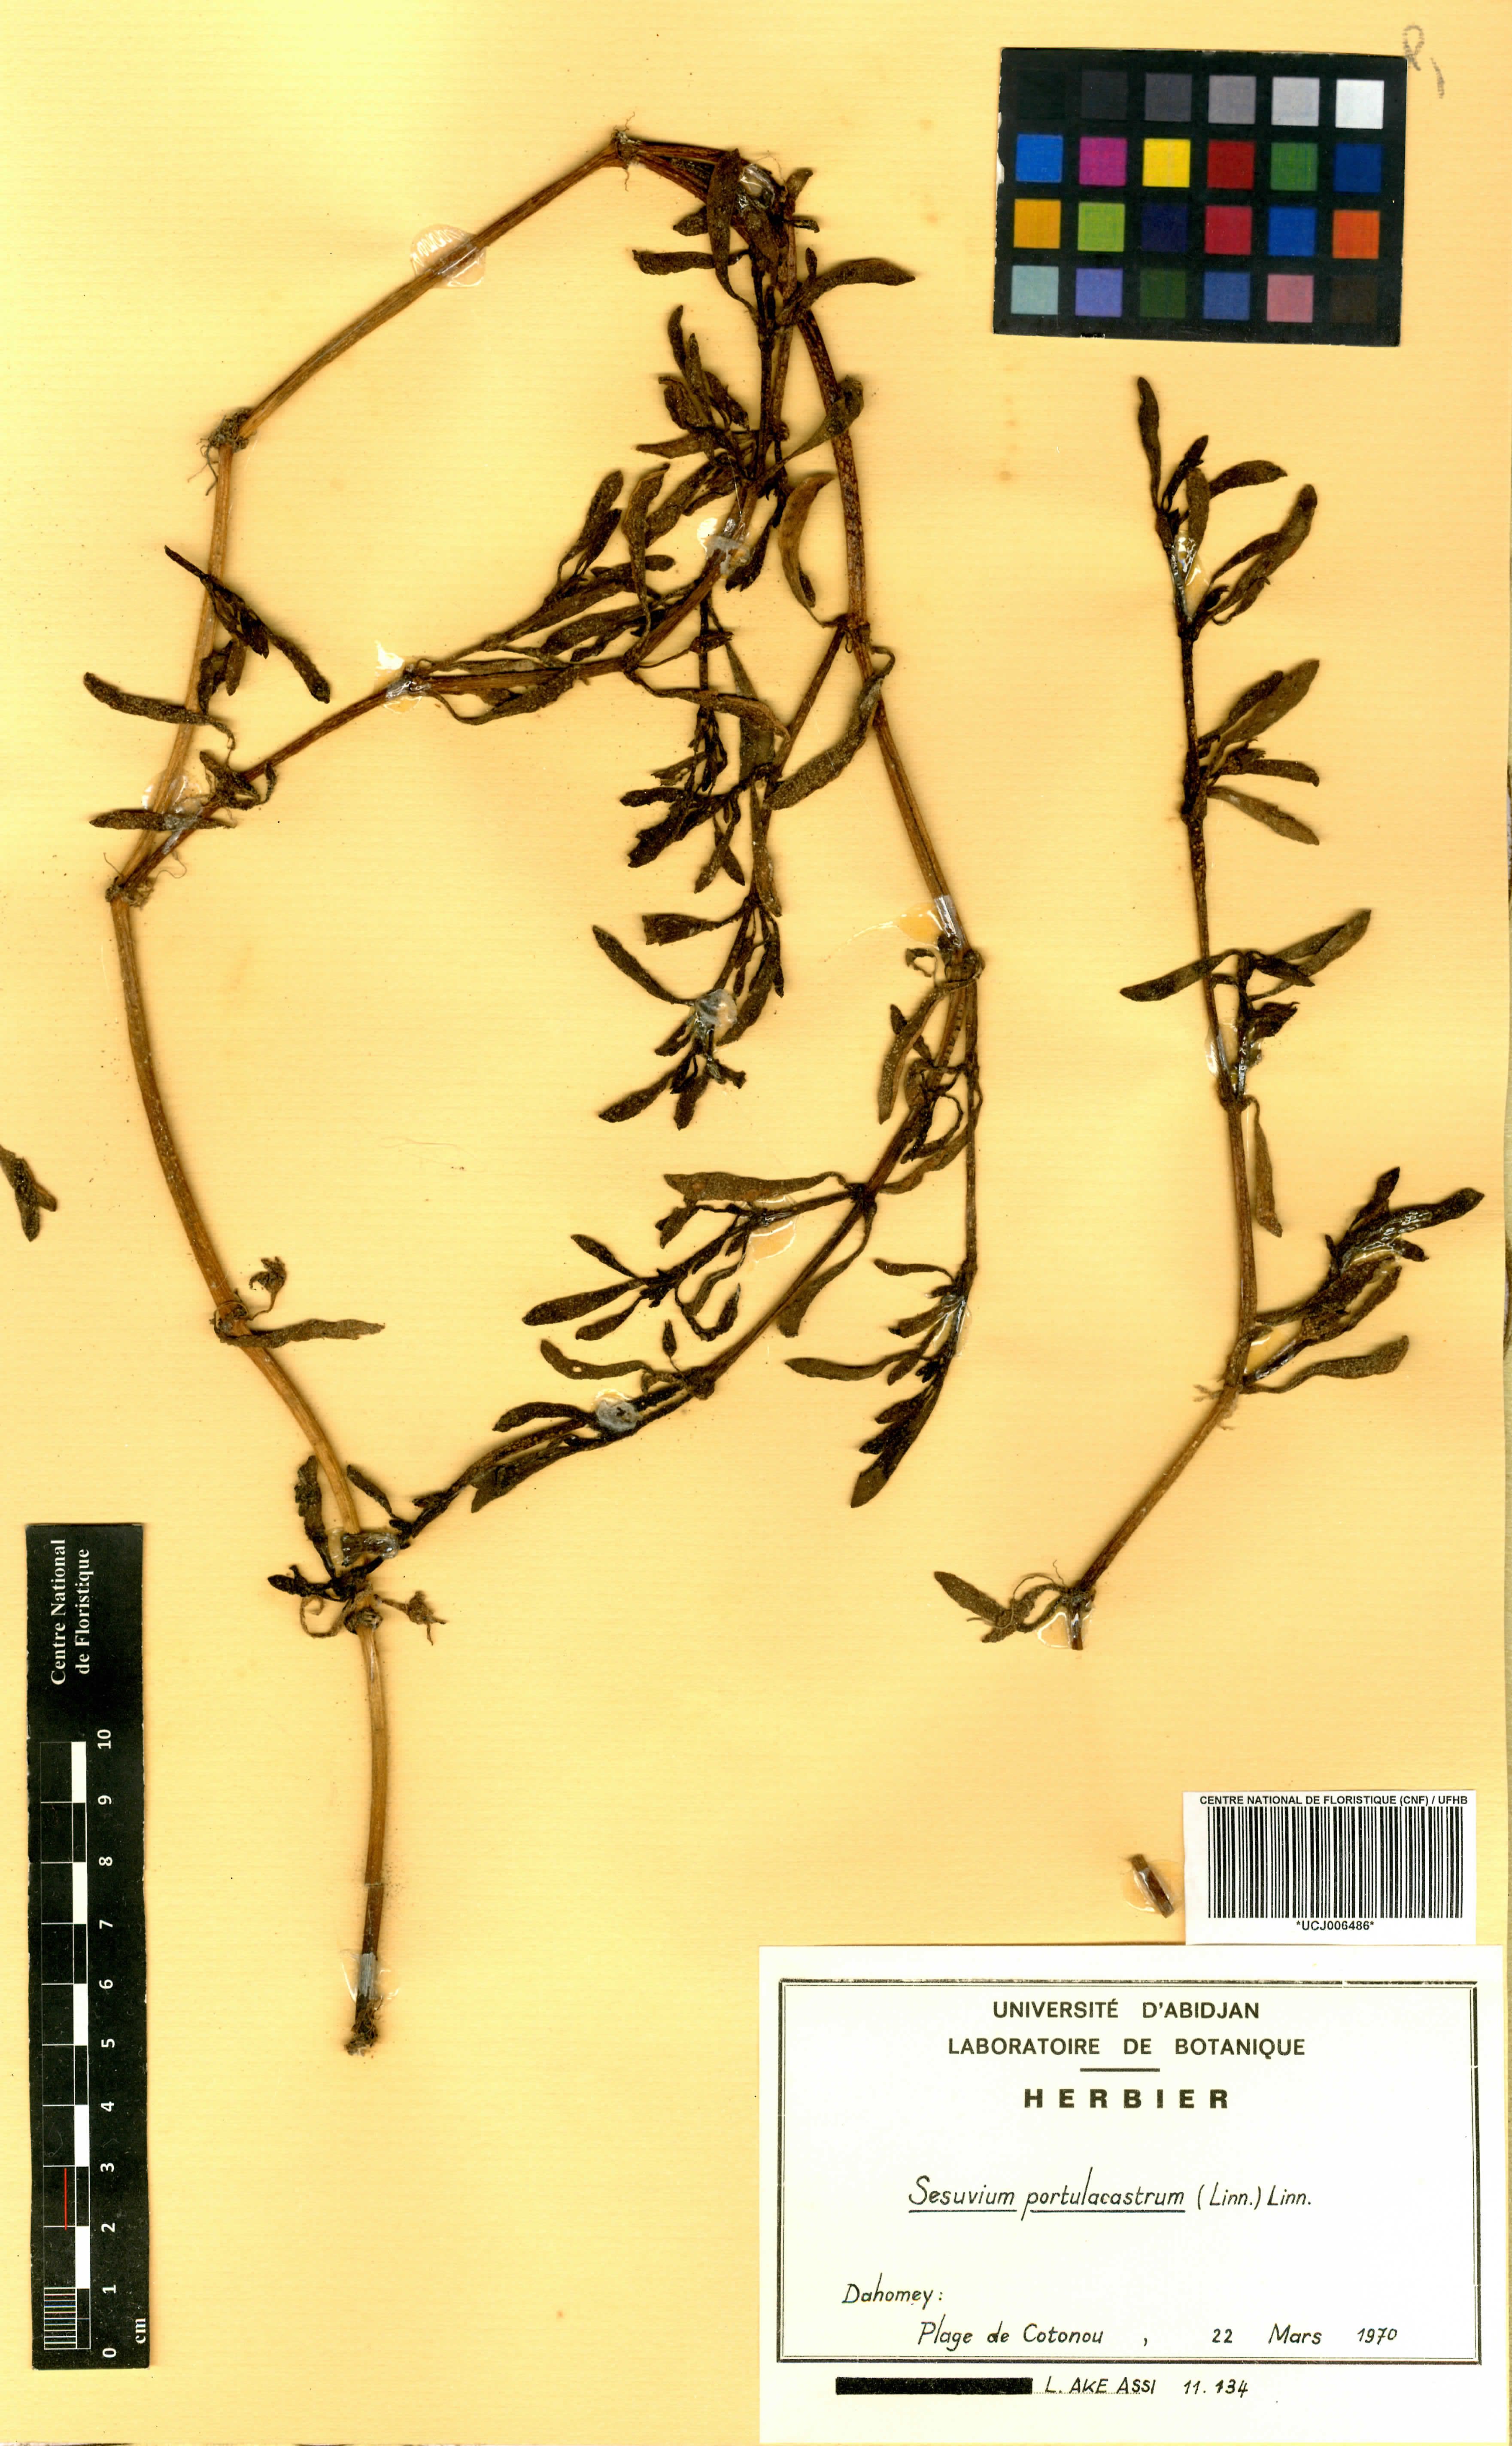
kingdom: Plantae
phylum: Tracheophyta
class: Magnoliopsida
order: Caryophyllales
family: Aizoaceae
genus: Sesuvium
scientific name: Sesuvium portulacastrum
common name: Sea-purslane
